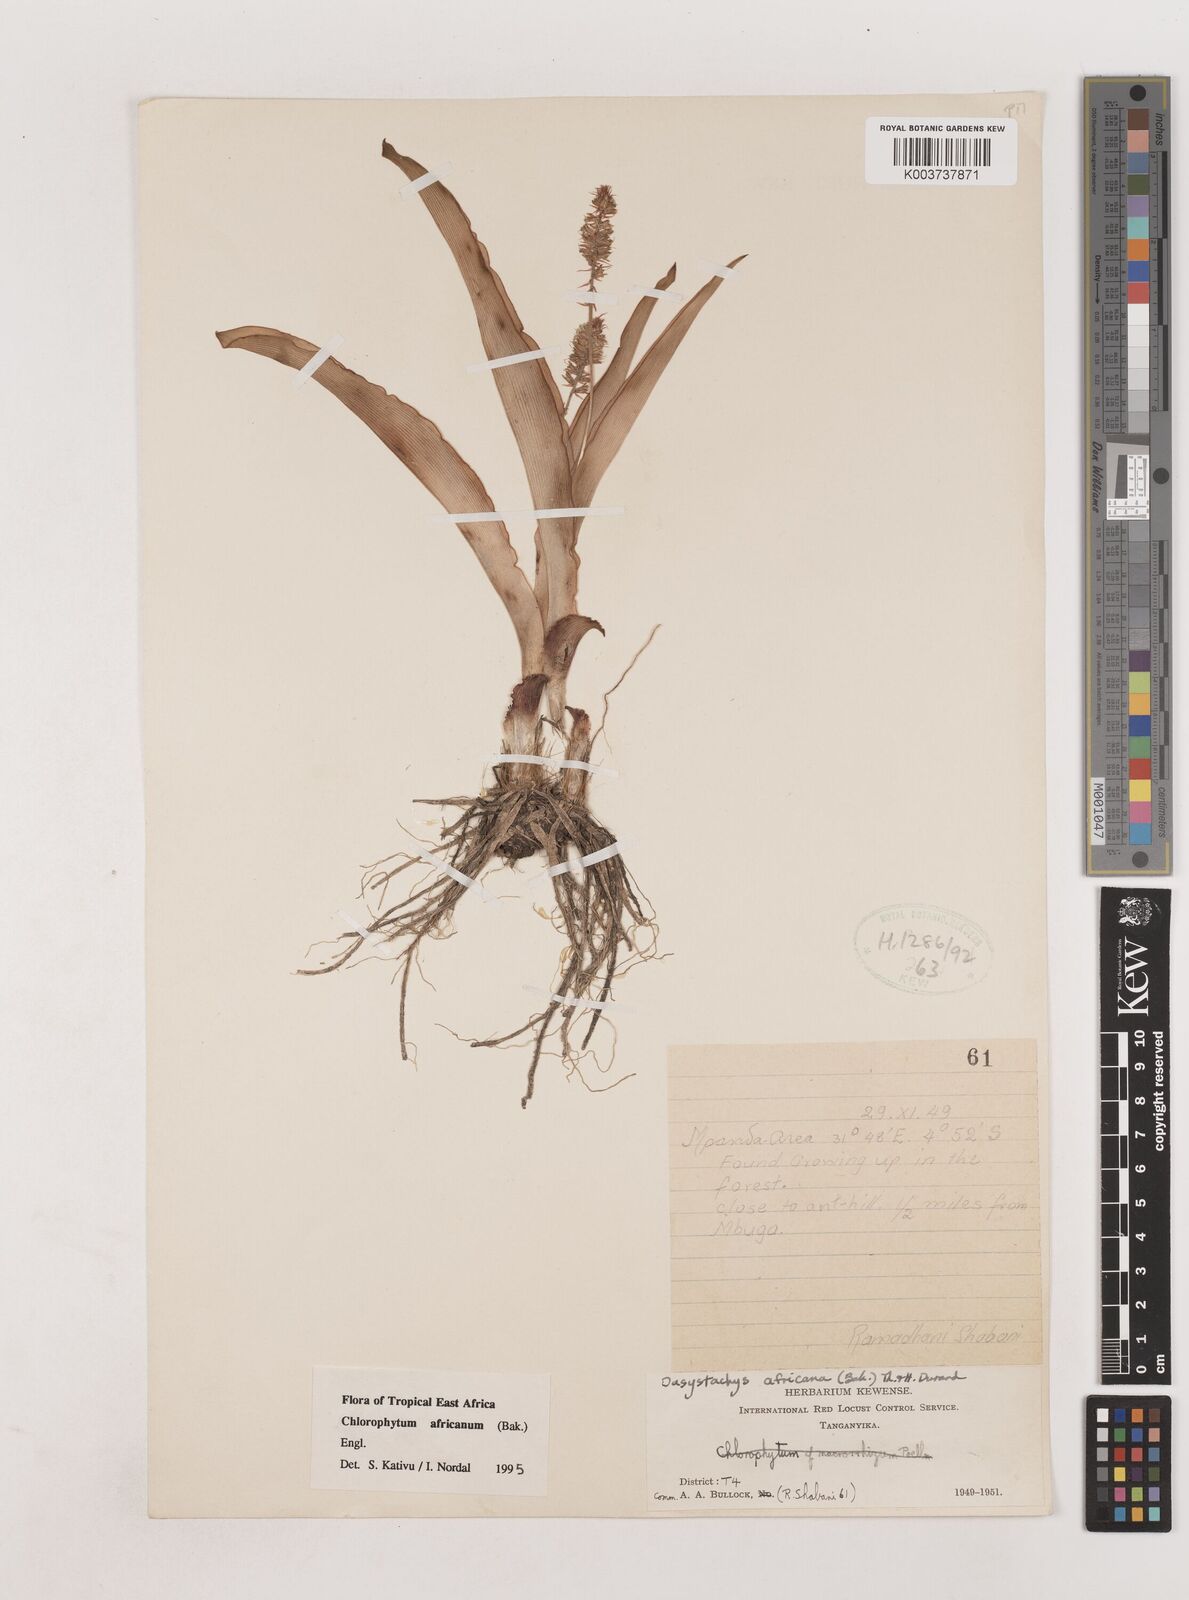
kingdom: Plantae
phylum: Tracheophyta
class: Liliopsida
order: Asparagales
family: Asparagaceae
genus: Chlorophytum
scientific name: Chlorophytum africanum
